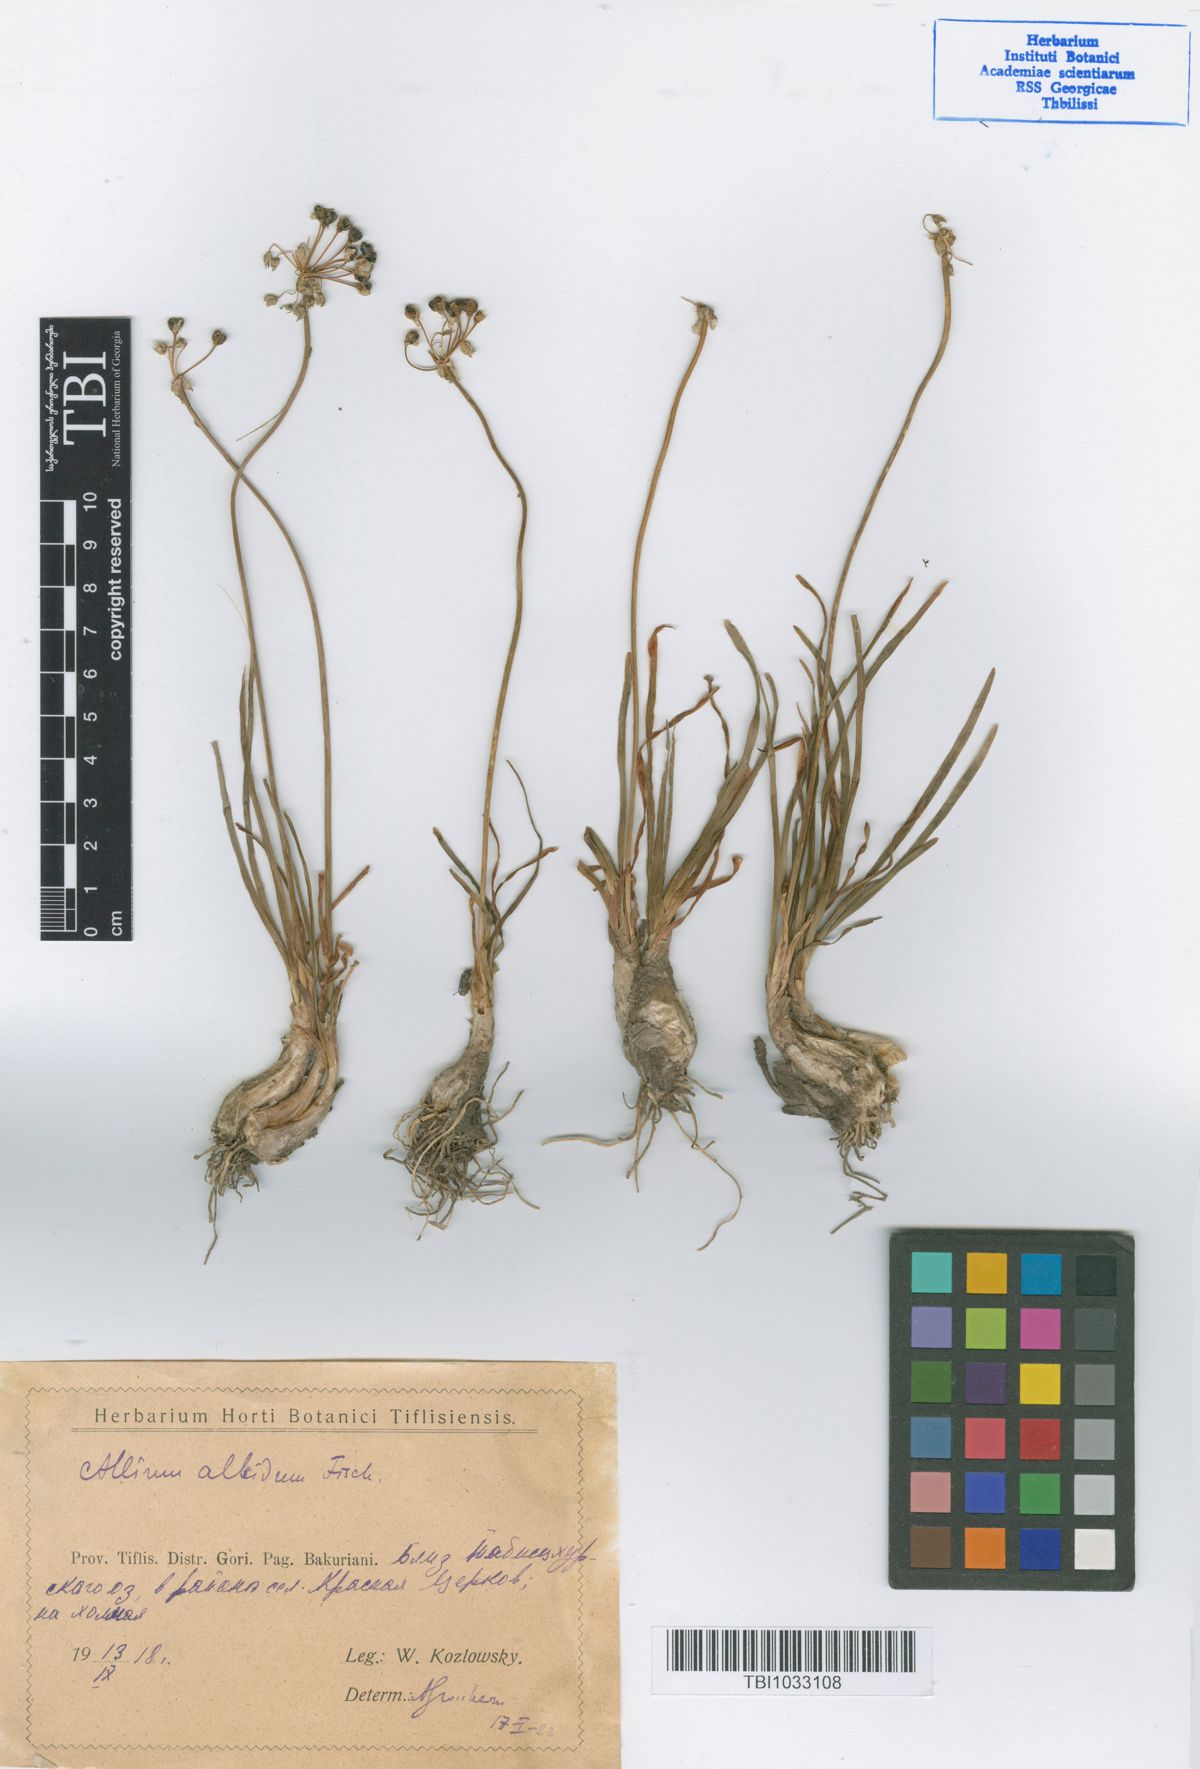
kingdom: Plantae
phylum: Tracheophyta
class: Liliopsida
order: Asparagales
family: Amaryllidaceae
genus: Allium
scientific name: Allium denudatum
